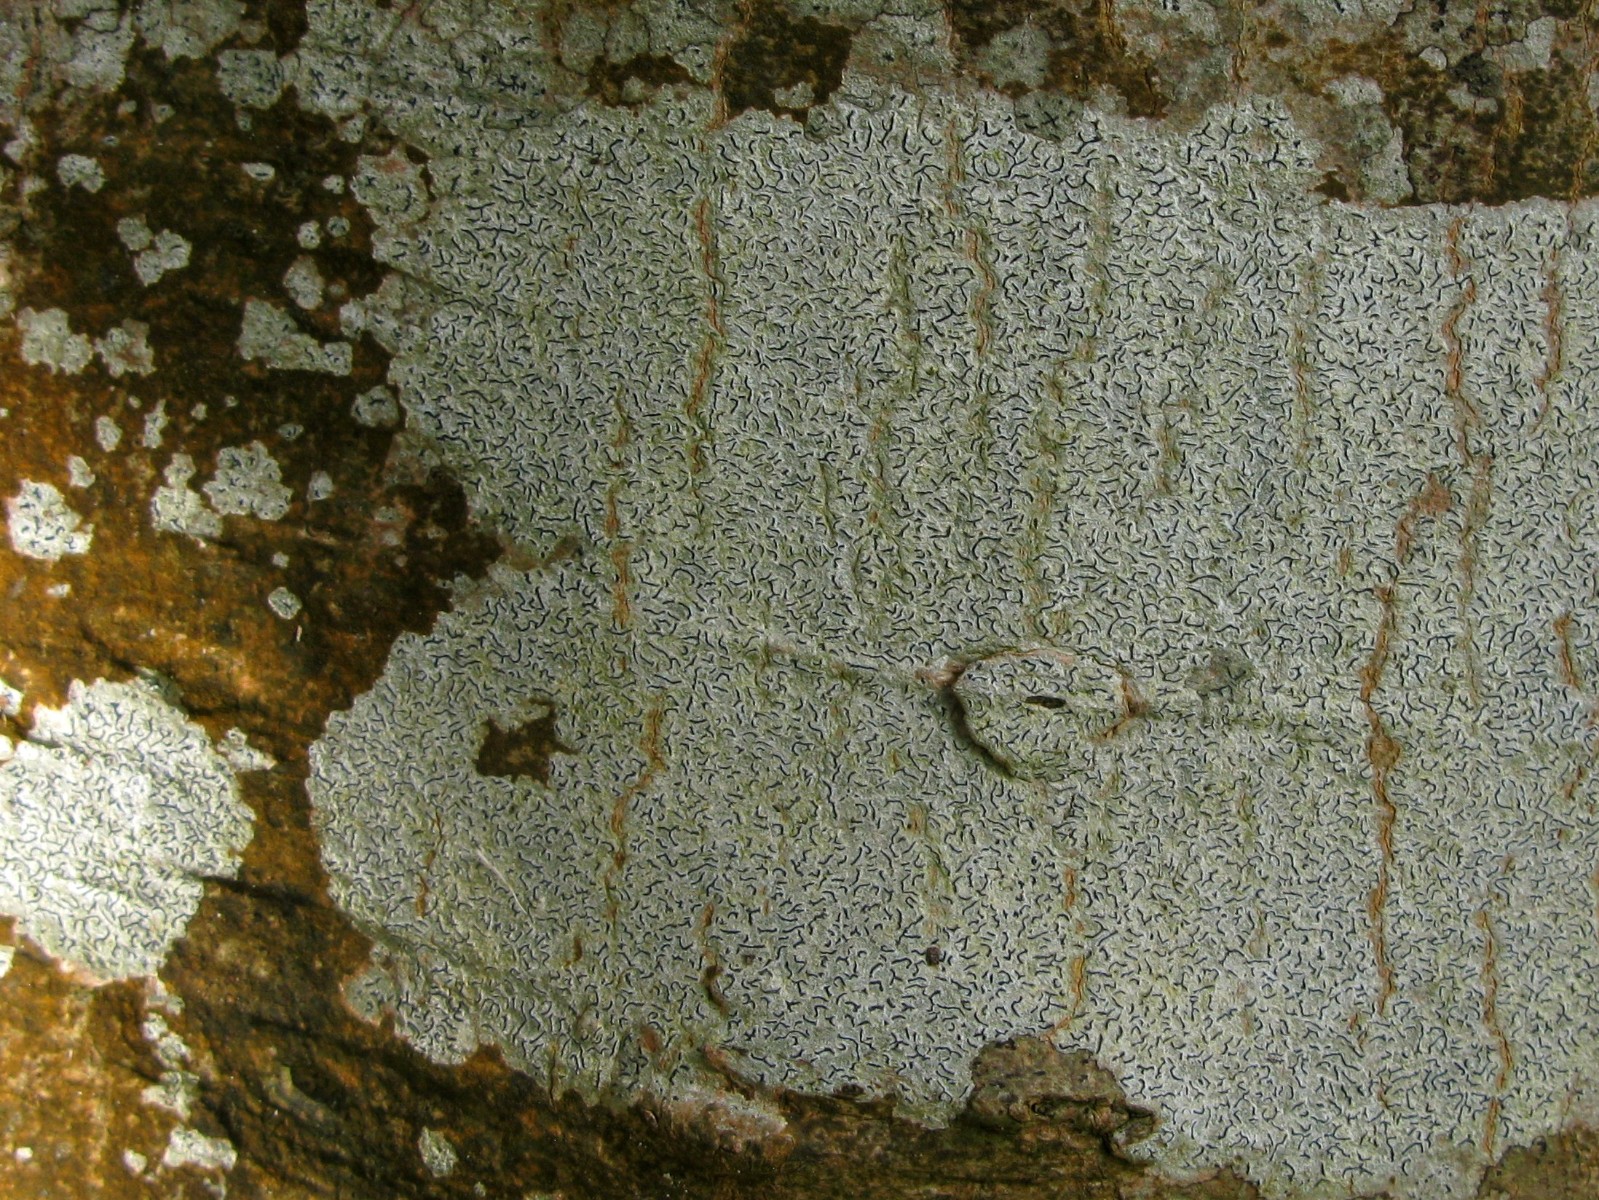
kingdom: Fungi
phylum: Ascomycota
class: Lecanoromycetes
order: Ostropales
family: Graphidaceae
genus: Graphis
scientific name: Graphis scripta
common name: almindelig skriftlav
